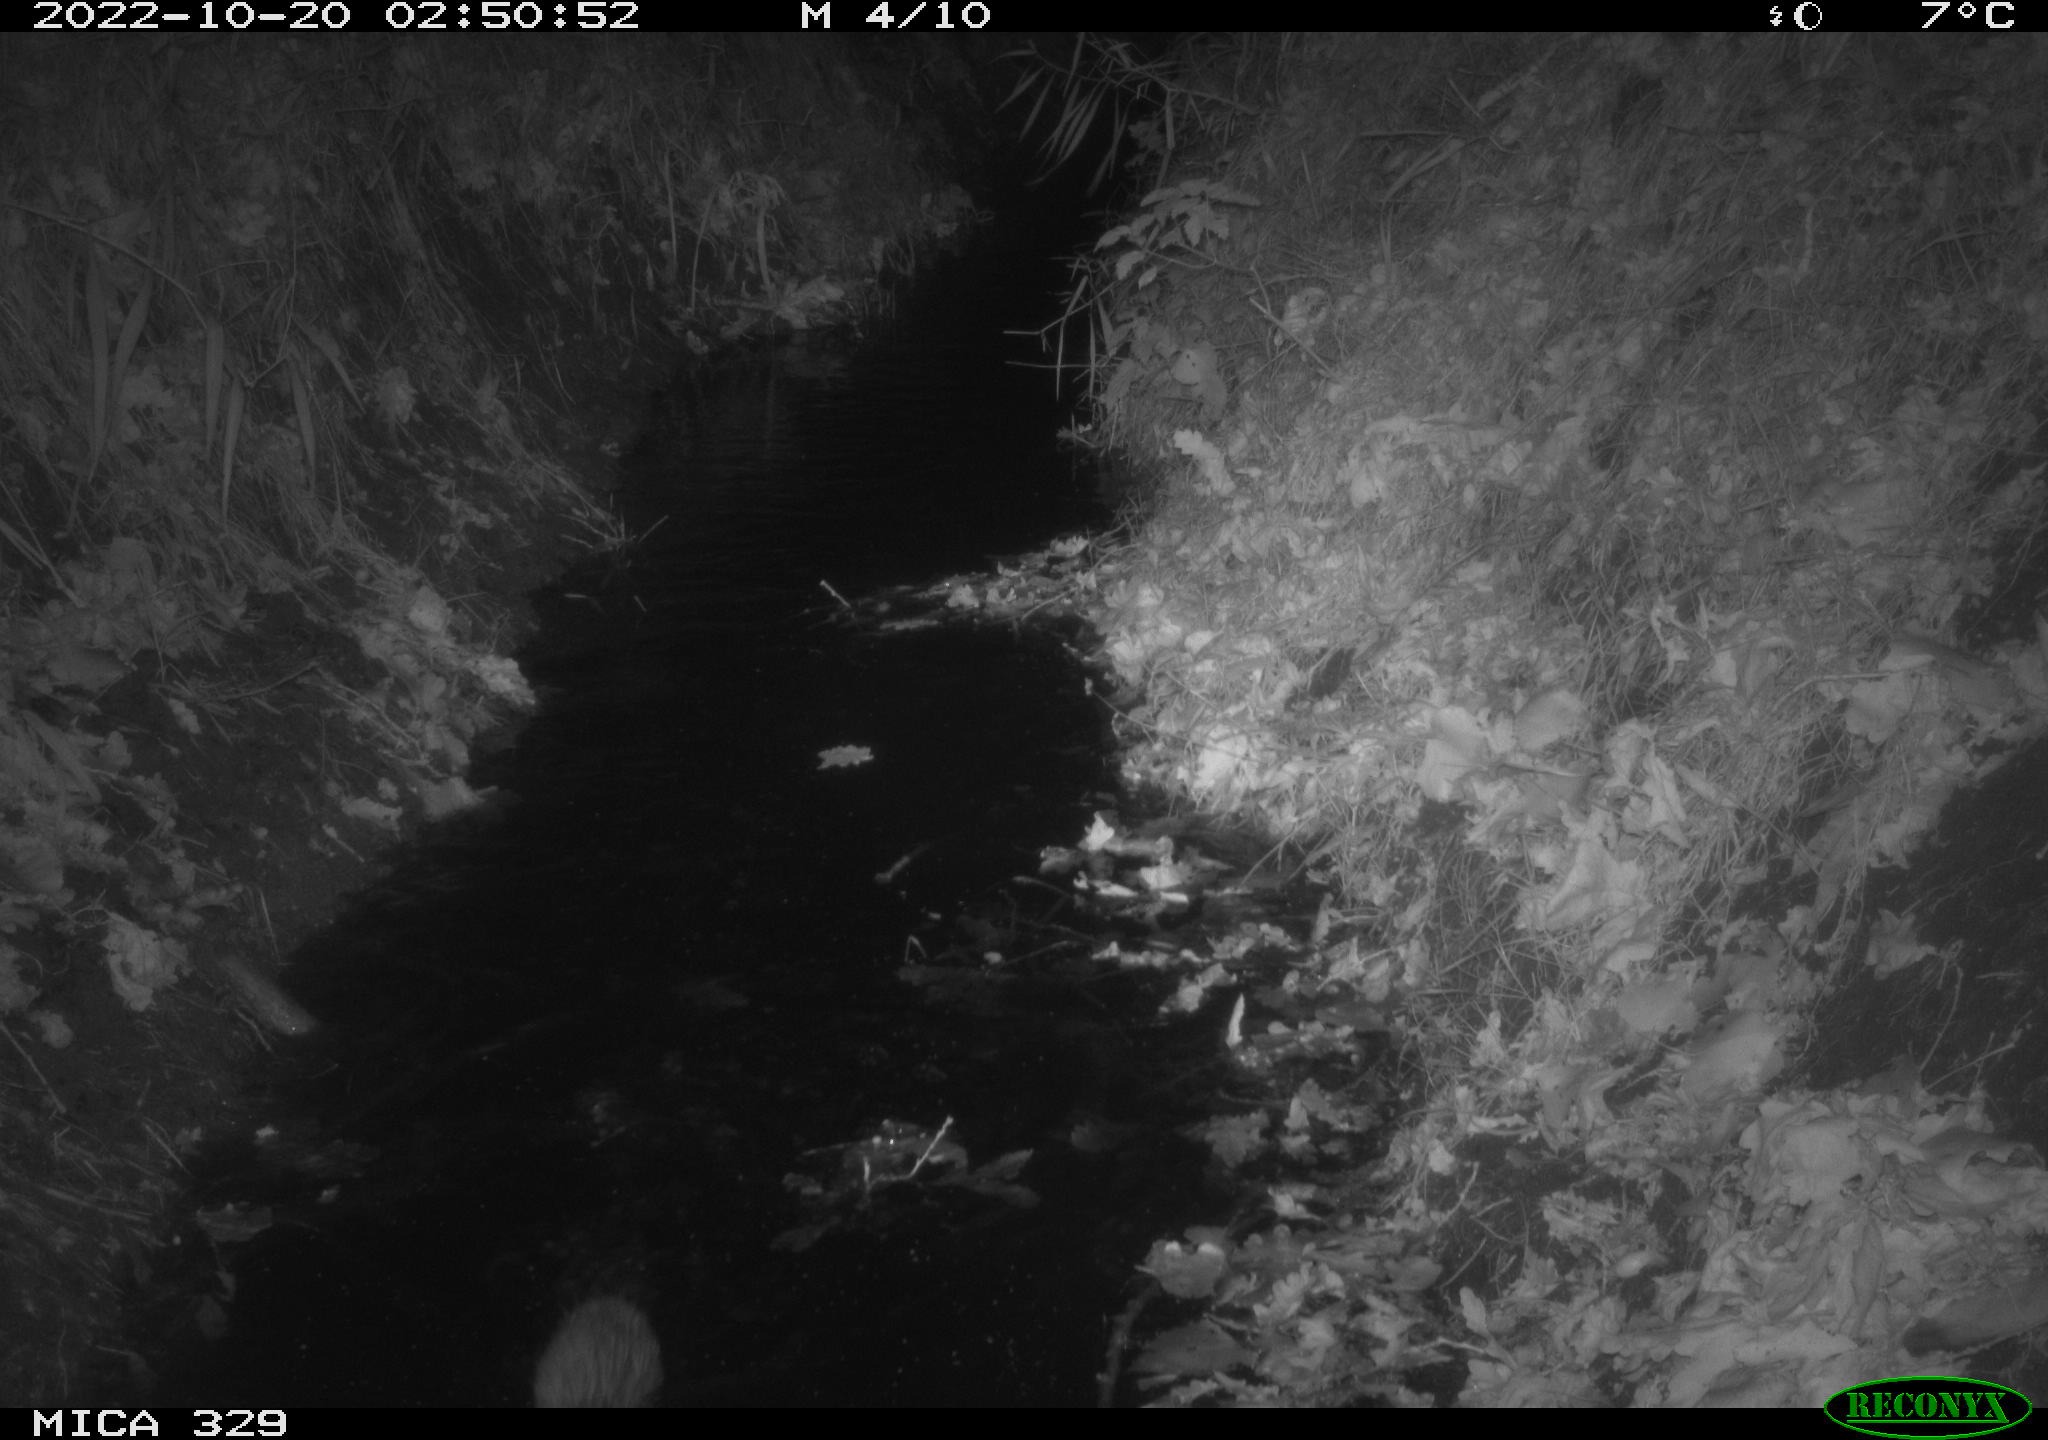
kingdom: Animalia
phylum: Chordata
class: Mammalia
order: Rodentia
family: Cricetidae
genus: Ondatra
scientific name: Ondatra zibethicus
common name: Muskrat
